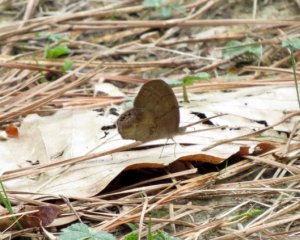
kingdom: Animalia
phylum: Arthropoda
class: Insecta
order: Lepidoptera
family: Nymphalidae
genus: Euptychia
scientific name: Euptychia cornelius
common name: Gemmed Satyr
